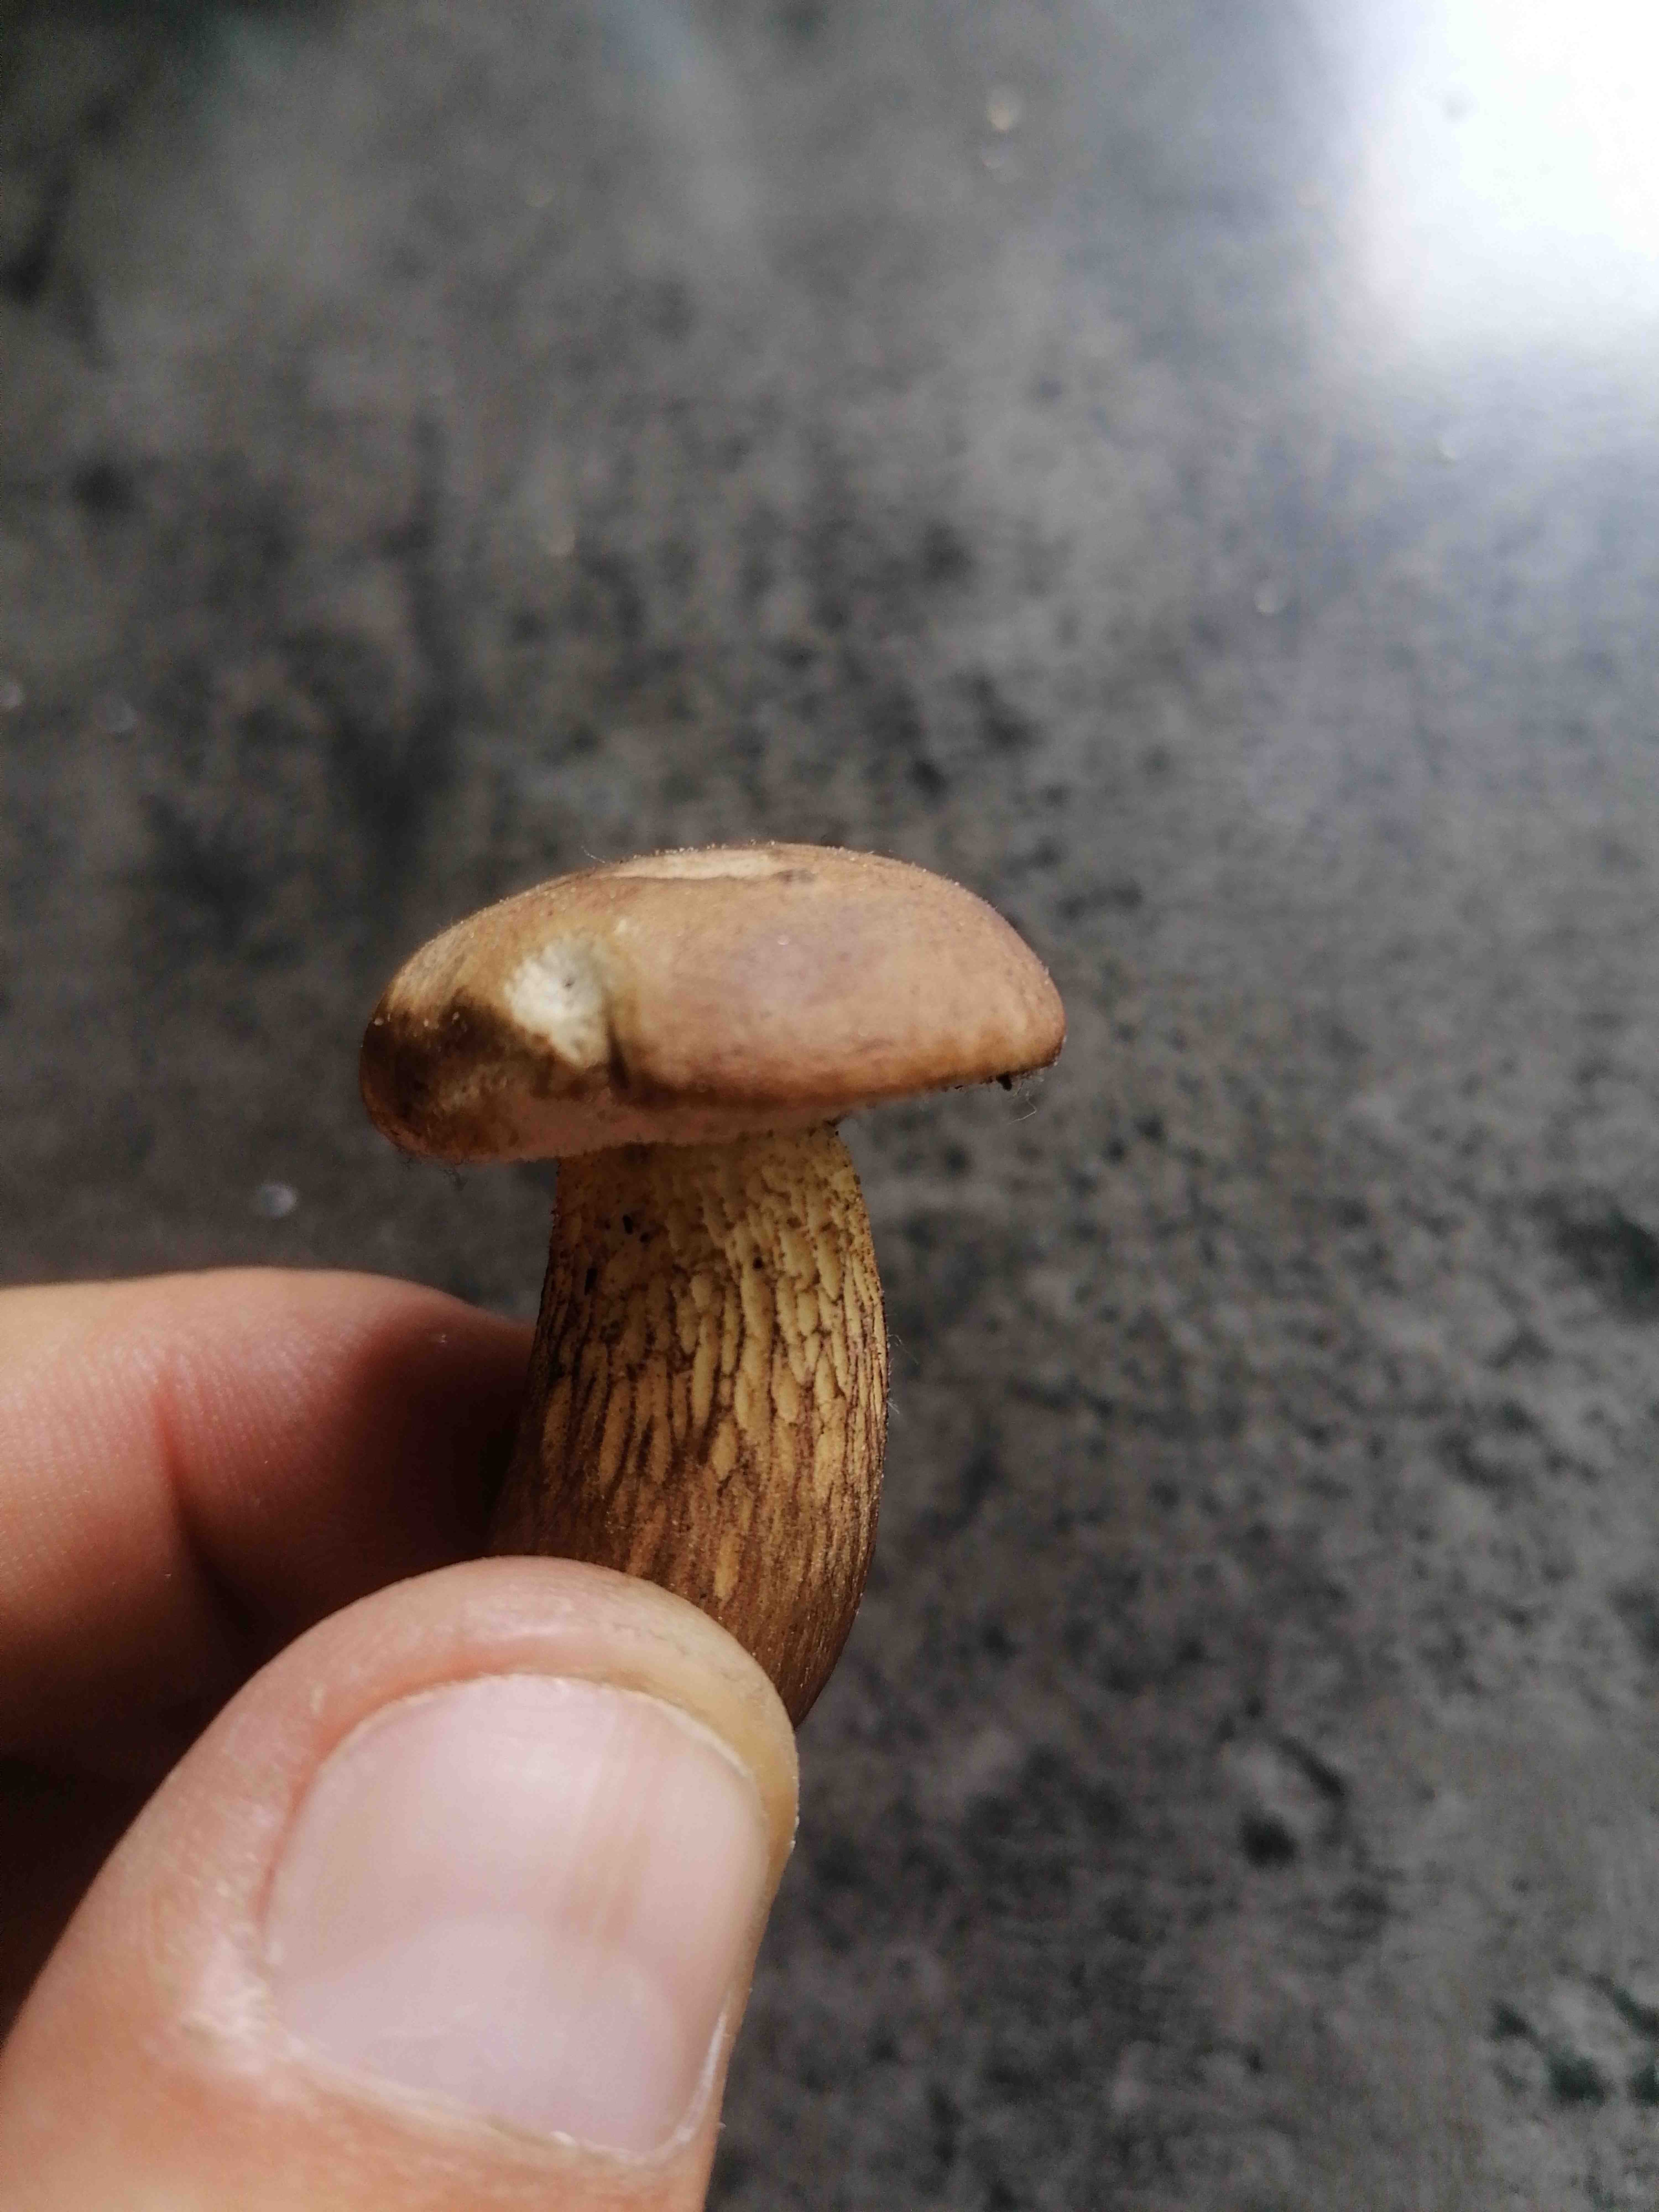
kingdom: Fungi
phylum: Basidiomycota
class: Agaricomycetes
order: Boletales
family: Boletaceae
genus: Tylopilus
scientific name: Tylopilus felleus
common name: galderørhat
